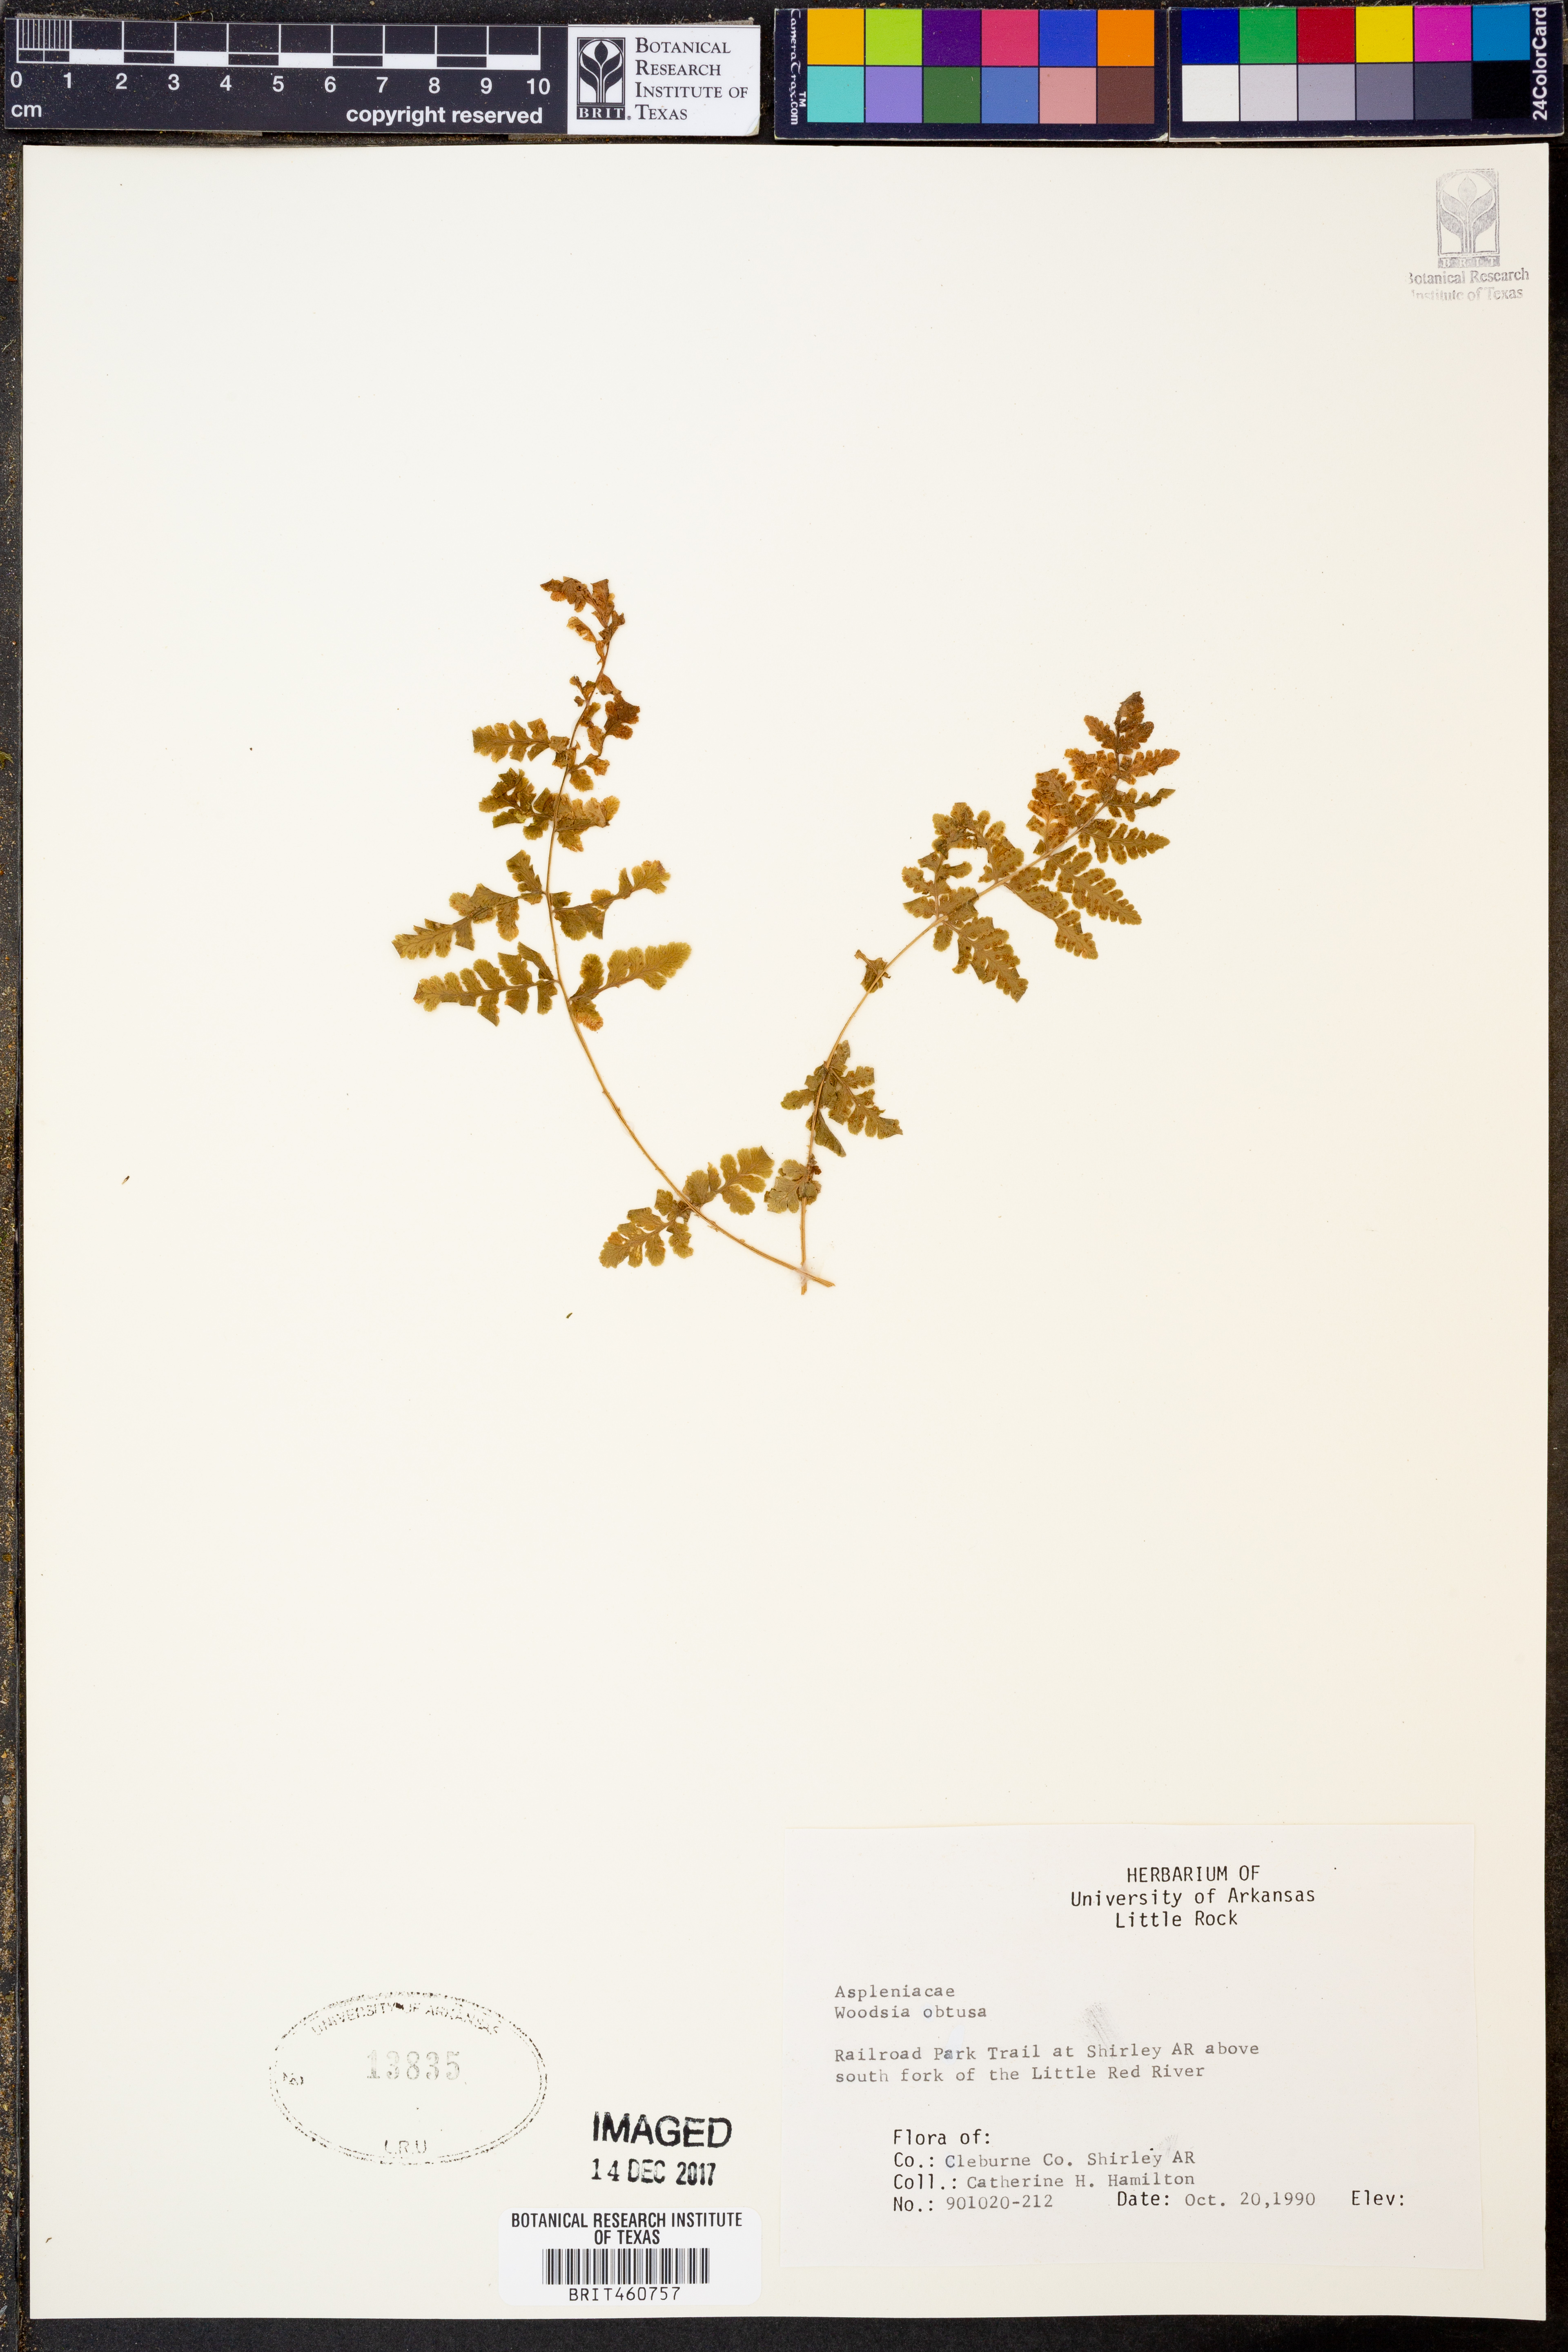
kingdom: Plantae
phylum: Tracheophyta
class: Polypodiopsida
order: Polypodiales
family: Woodsiaceae
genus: Physematium
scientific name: Physematium obtusum
